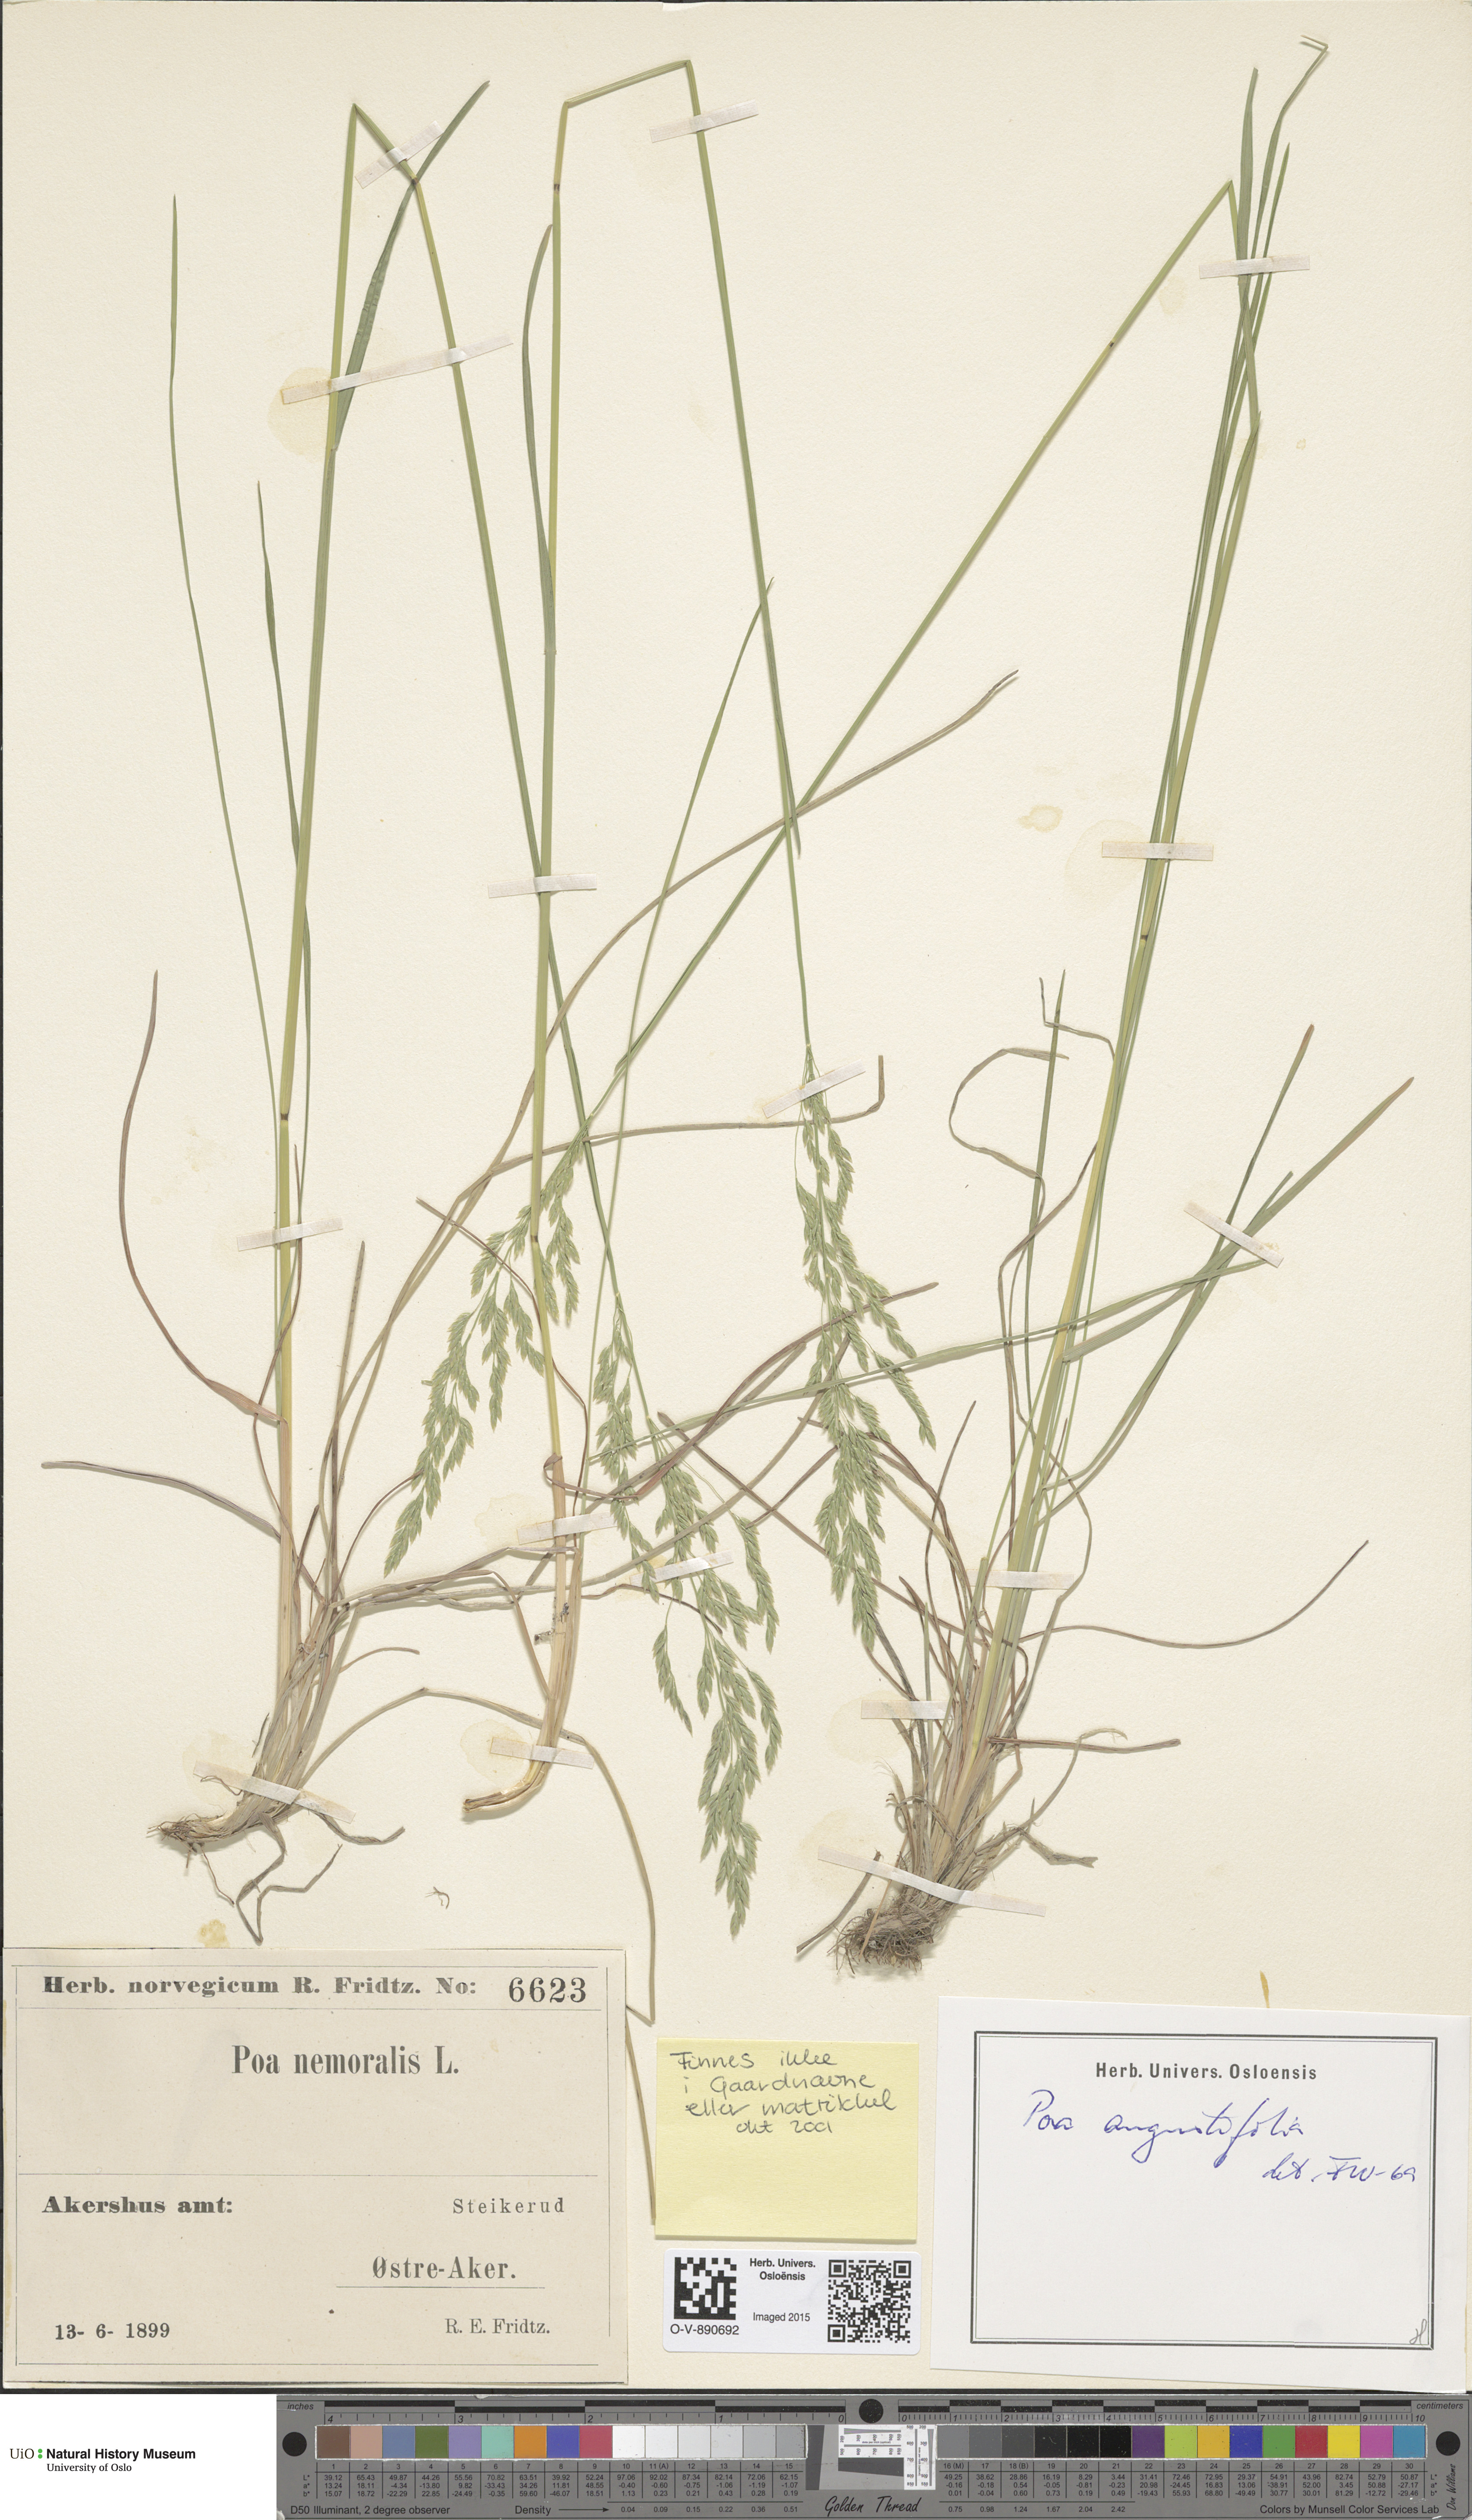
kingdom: Plantae
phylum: Tracheophyta
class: Liliopsida
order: Poales
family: Poaceae
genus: Poa
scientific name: Poa angustifolia
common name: Narrow-leaved meadow-grass
